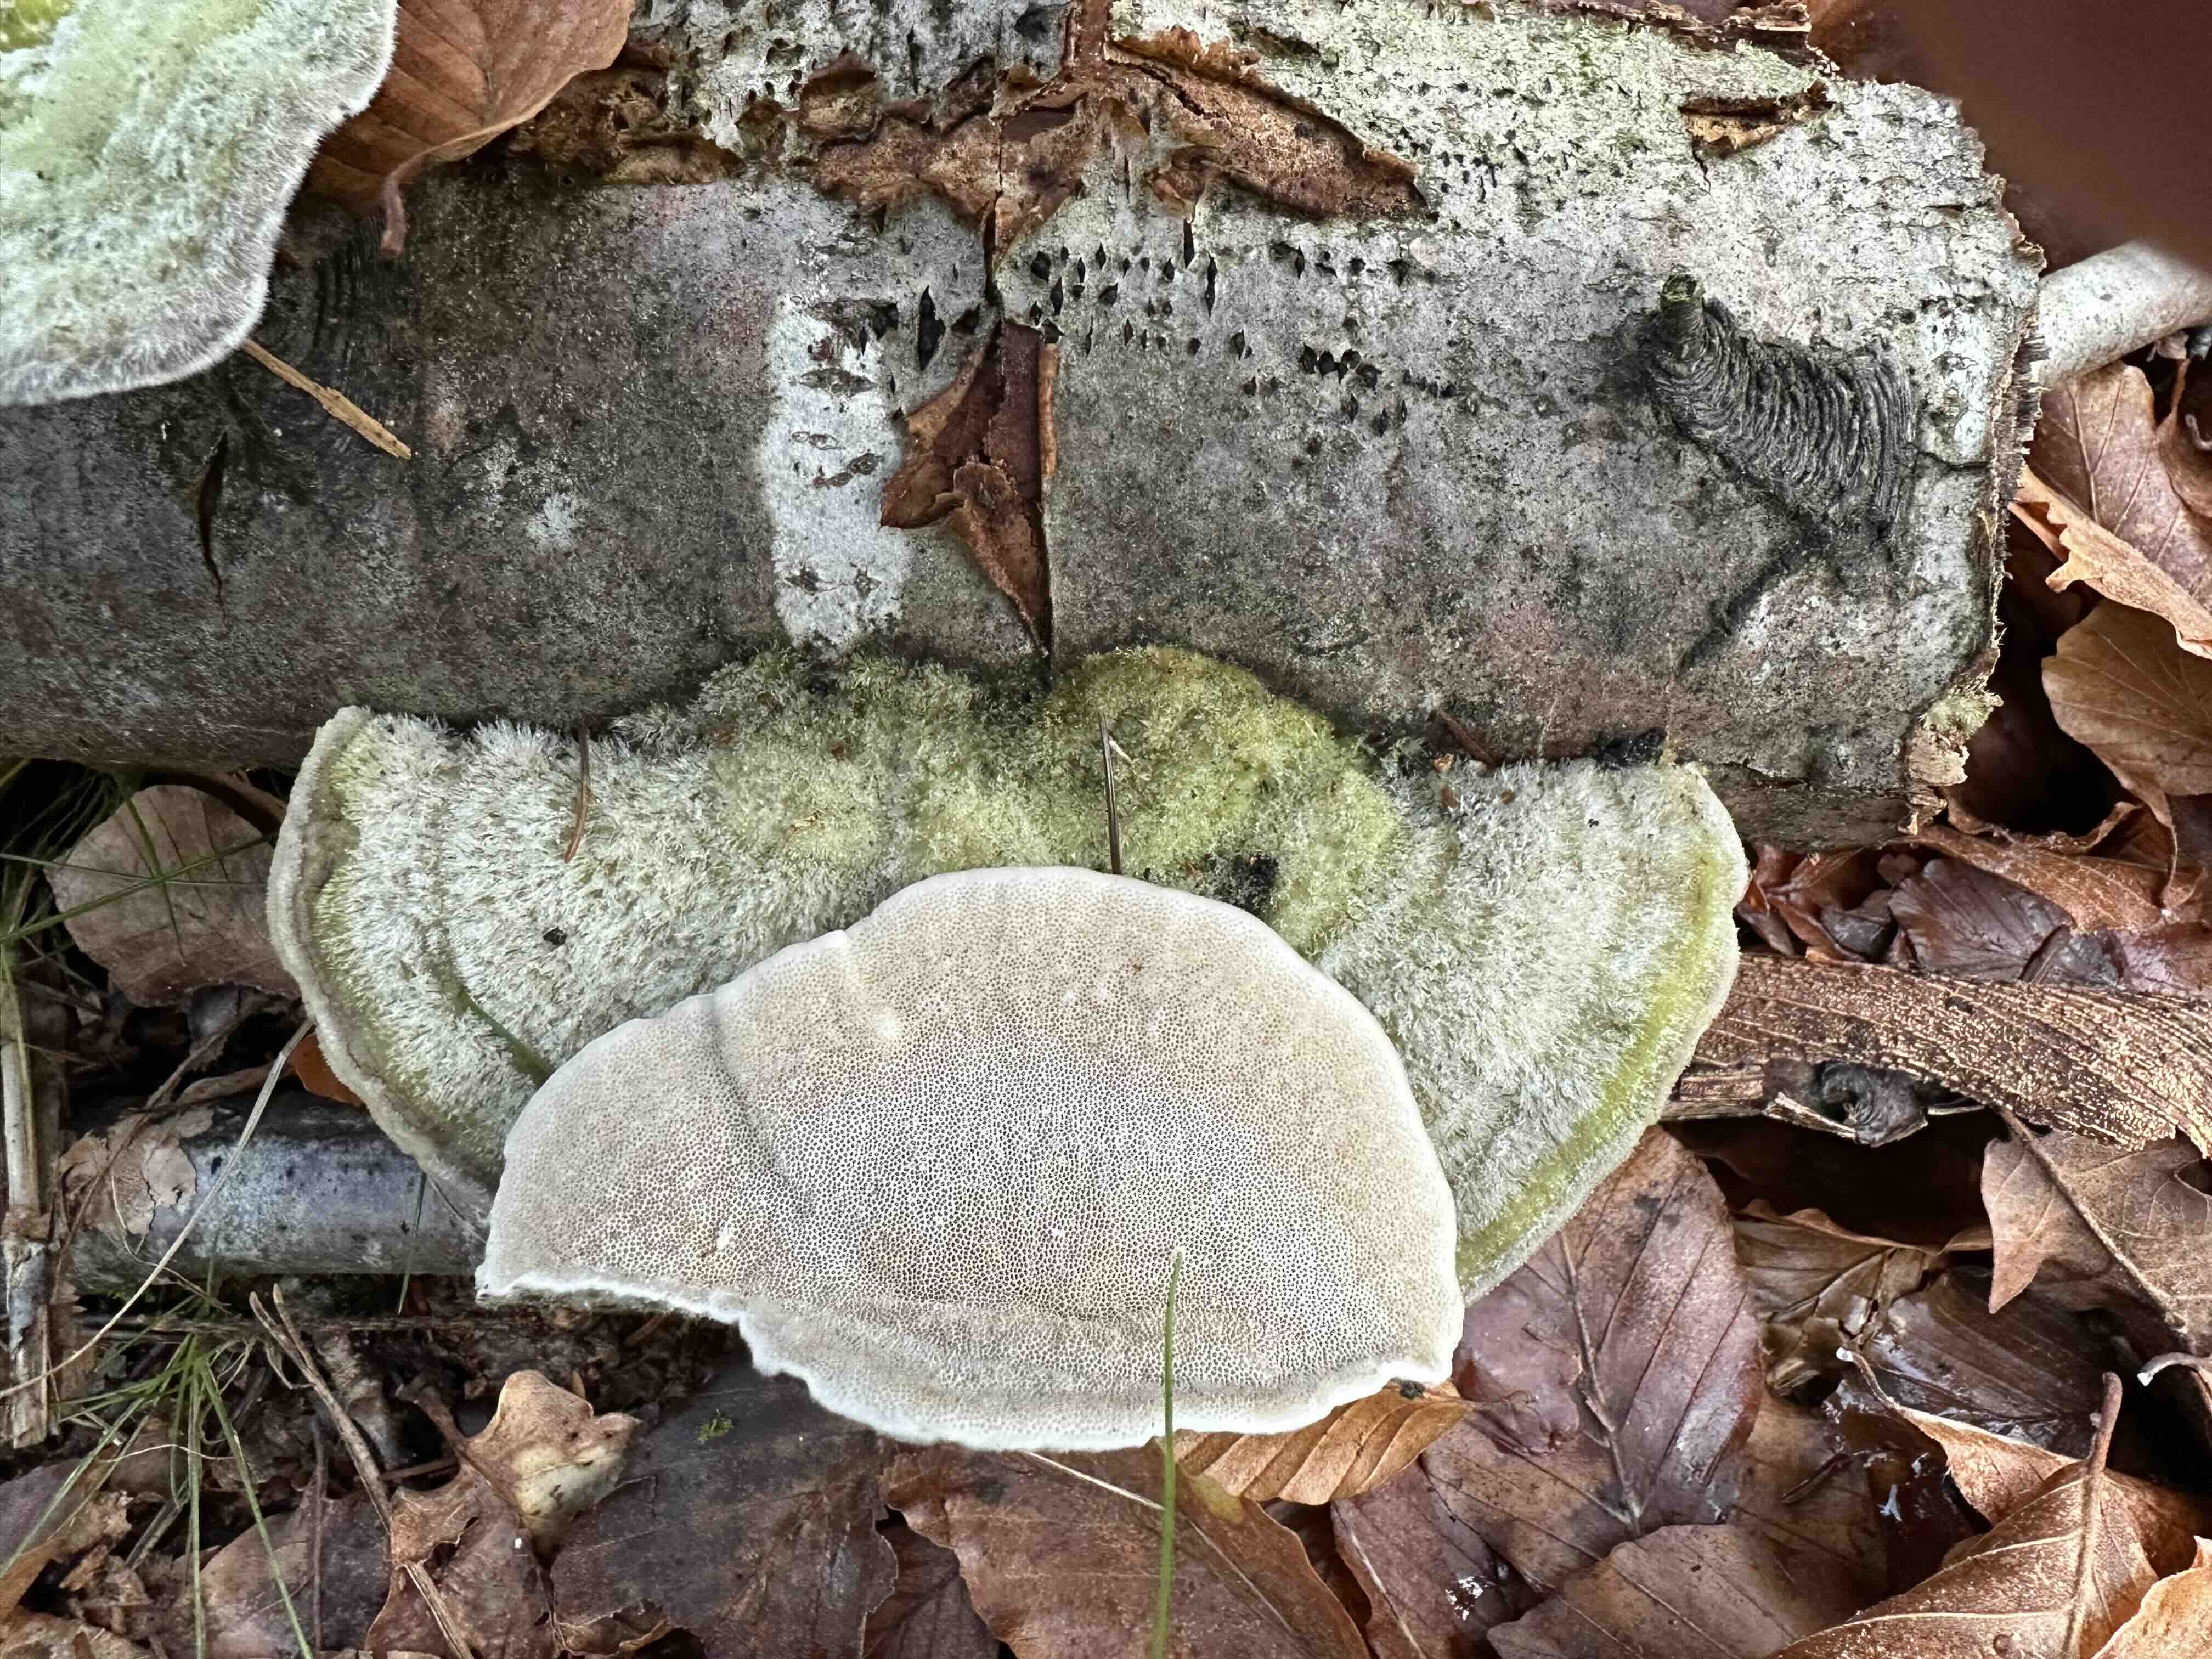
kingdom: Fungi
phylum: Basidiomycota
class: Agaricomycetes
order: Polyporales
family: Polyporaceae
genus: Trametes
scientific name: Trametes hirsuta
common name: håret læderporesvamp
